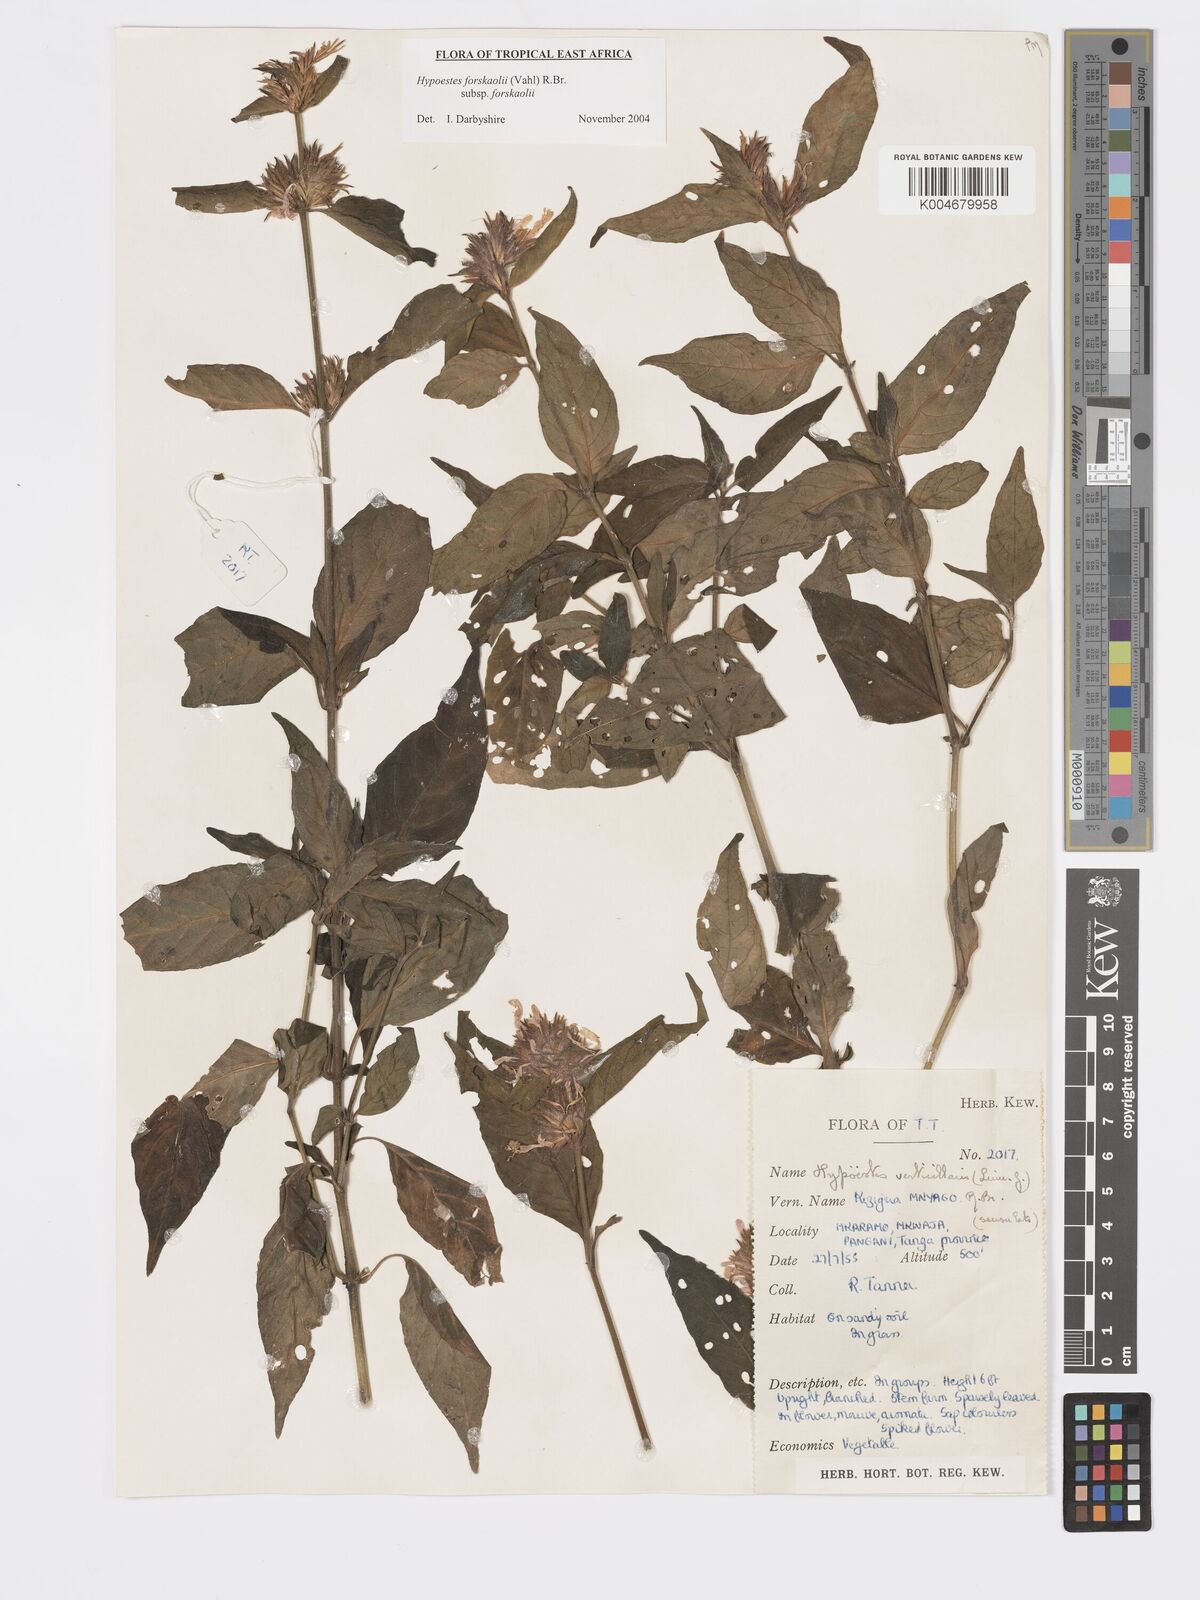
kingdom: Plantae
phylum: Tracheophyta
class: Magnoliopsida
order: Lamiales
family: Acanthaceae
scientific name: Acanthaceae
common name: Acanthaceae
